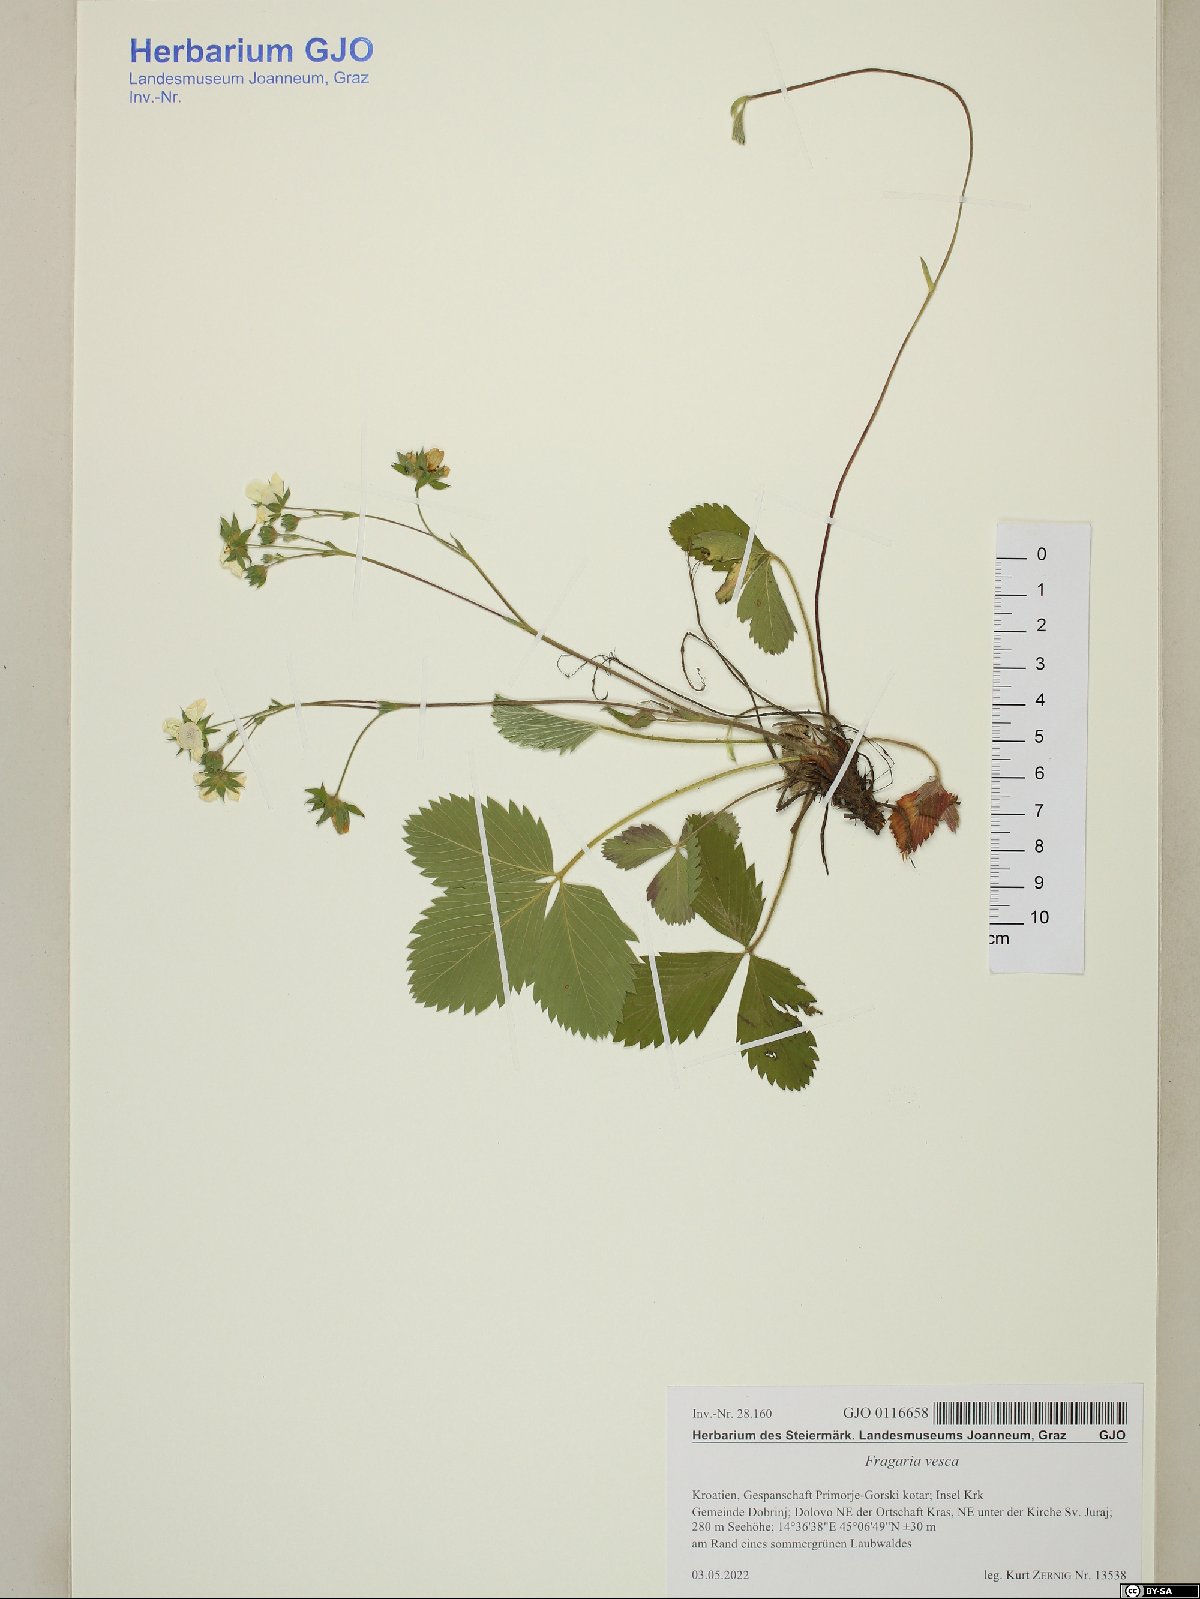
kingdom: Plantae
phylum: Tracheophyta
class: Magnoliopsida
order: Rosales
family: Rosaceae
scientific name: Rosaceae
